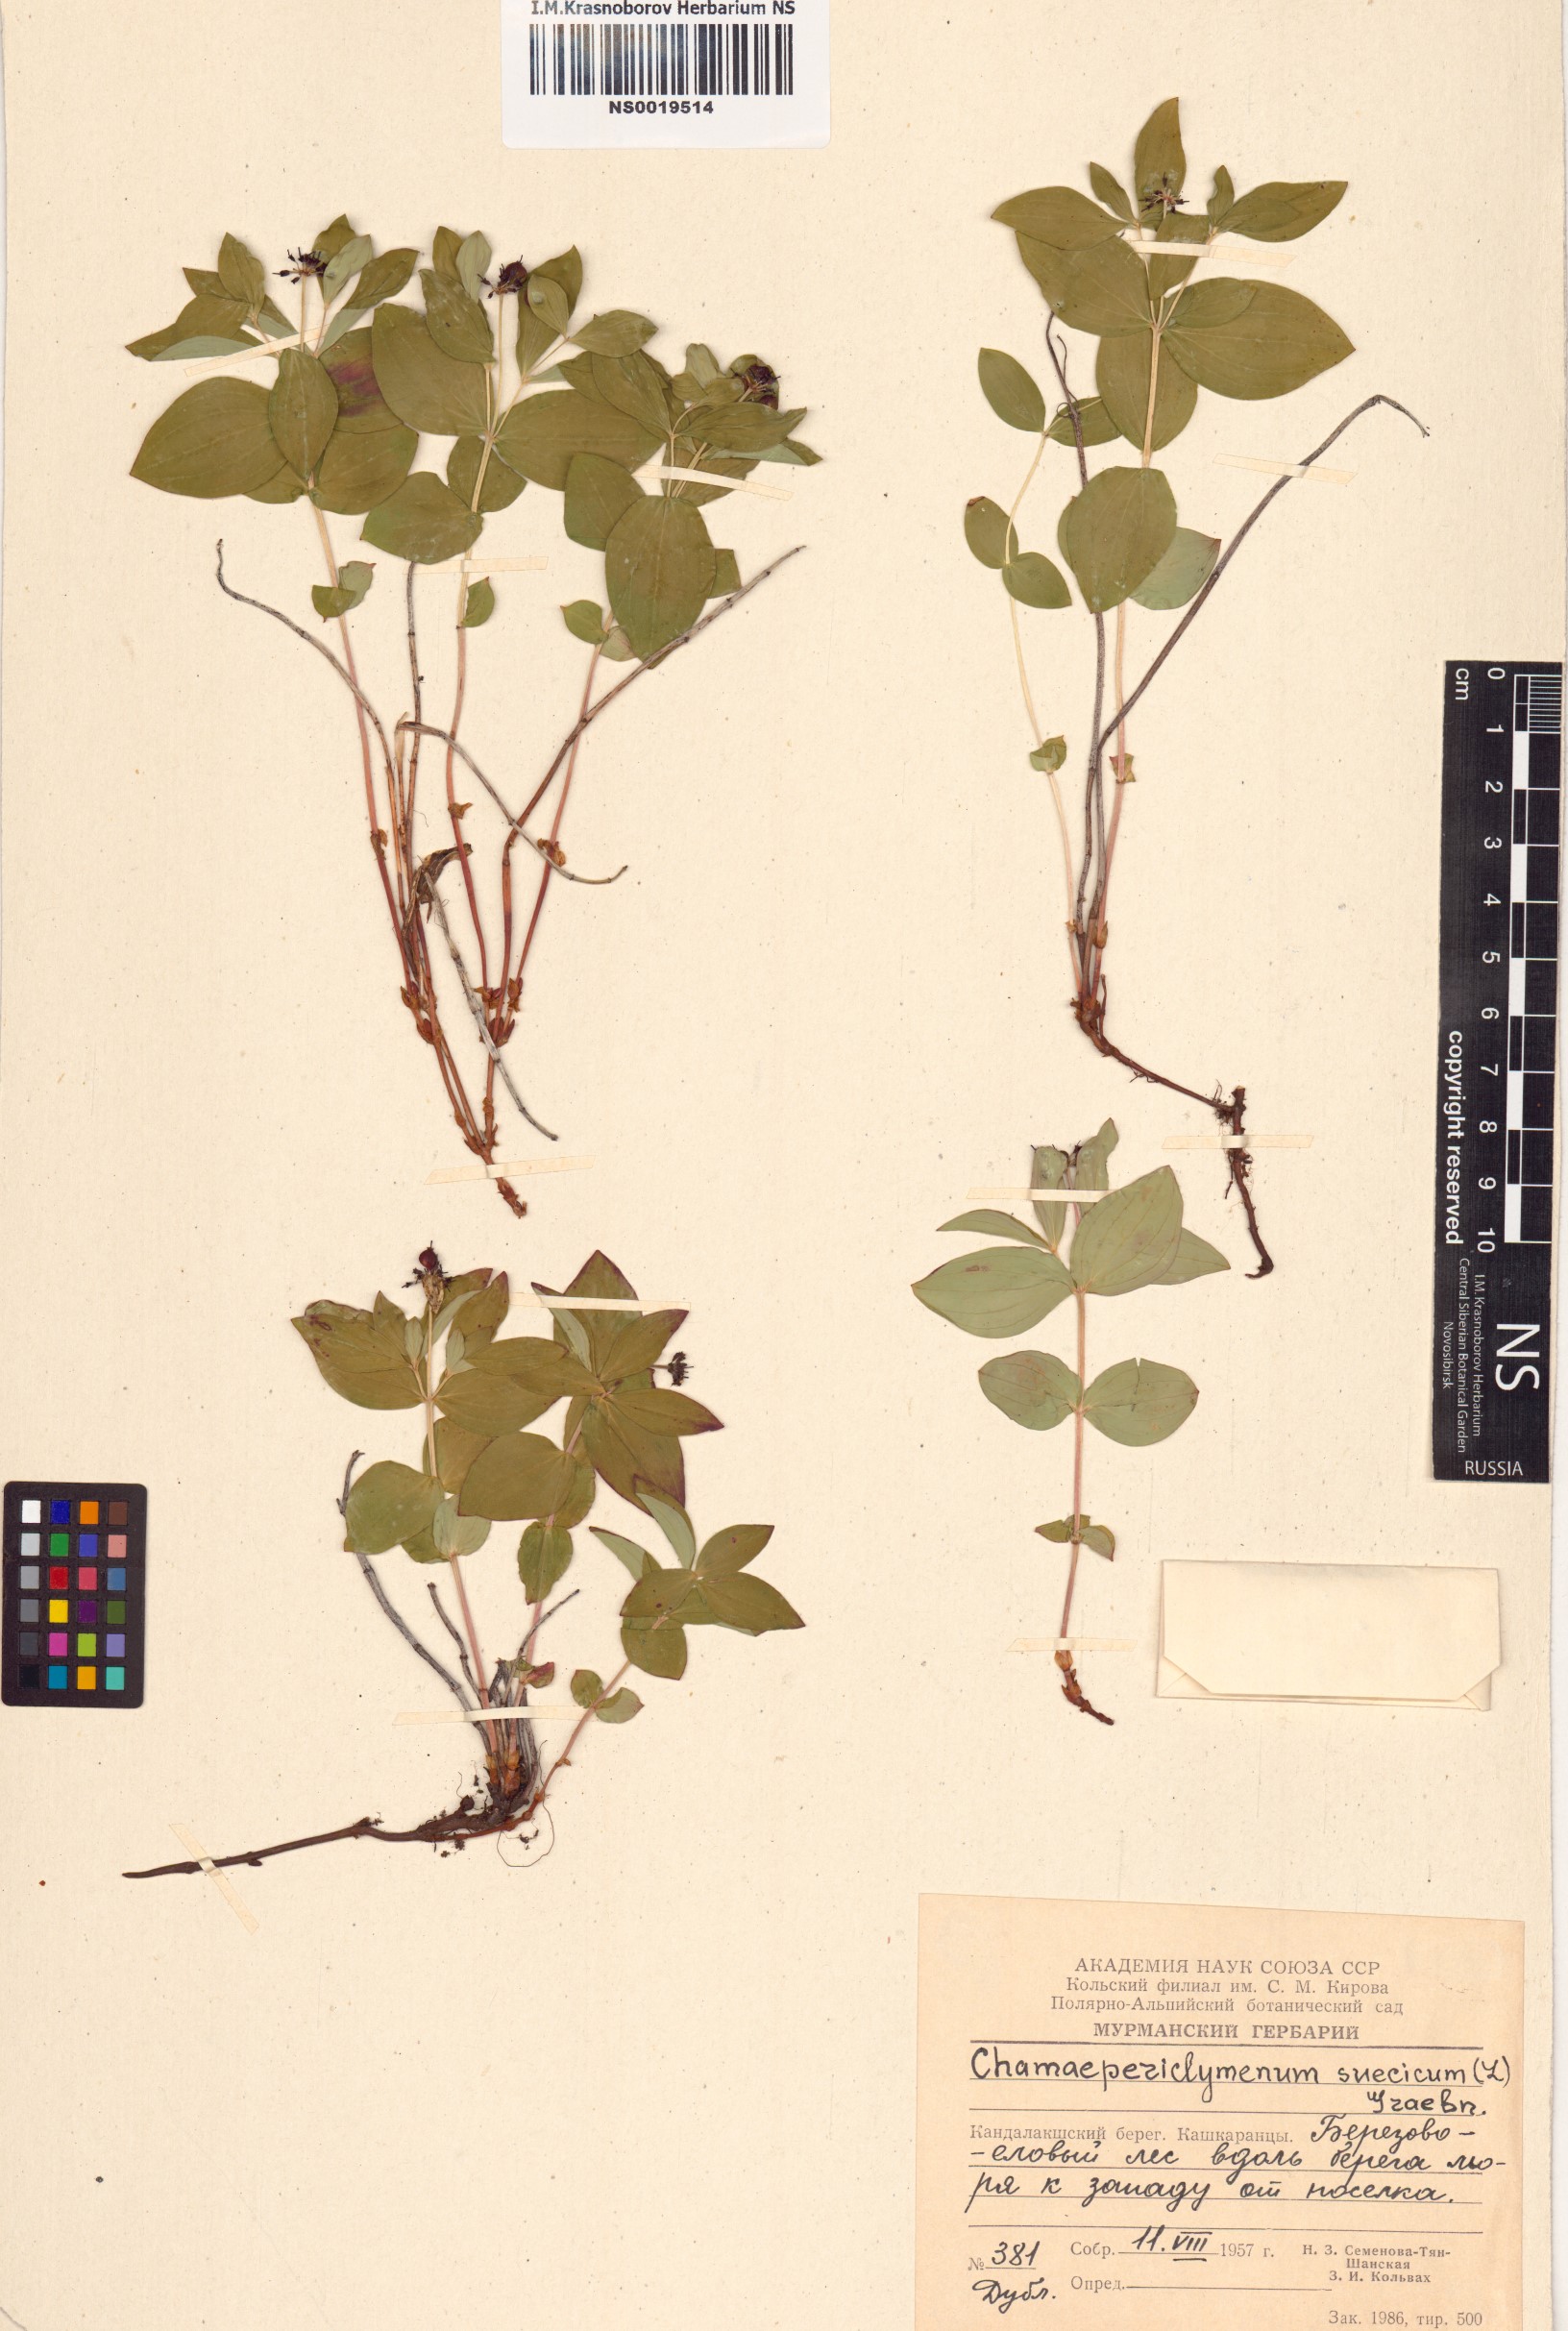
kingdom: Plantae
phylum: Tracheophyta
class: Magnoliopsida
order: Cornales
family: Cornaceae
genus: Cornus
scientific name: Cornus suecica
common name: Dwarf cornel
